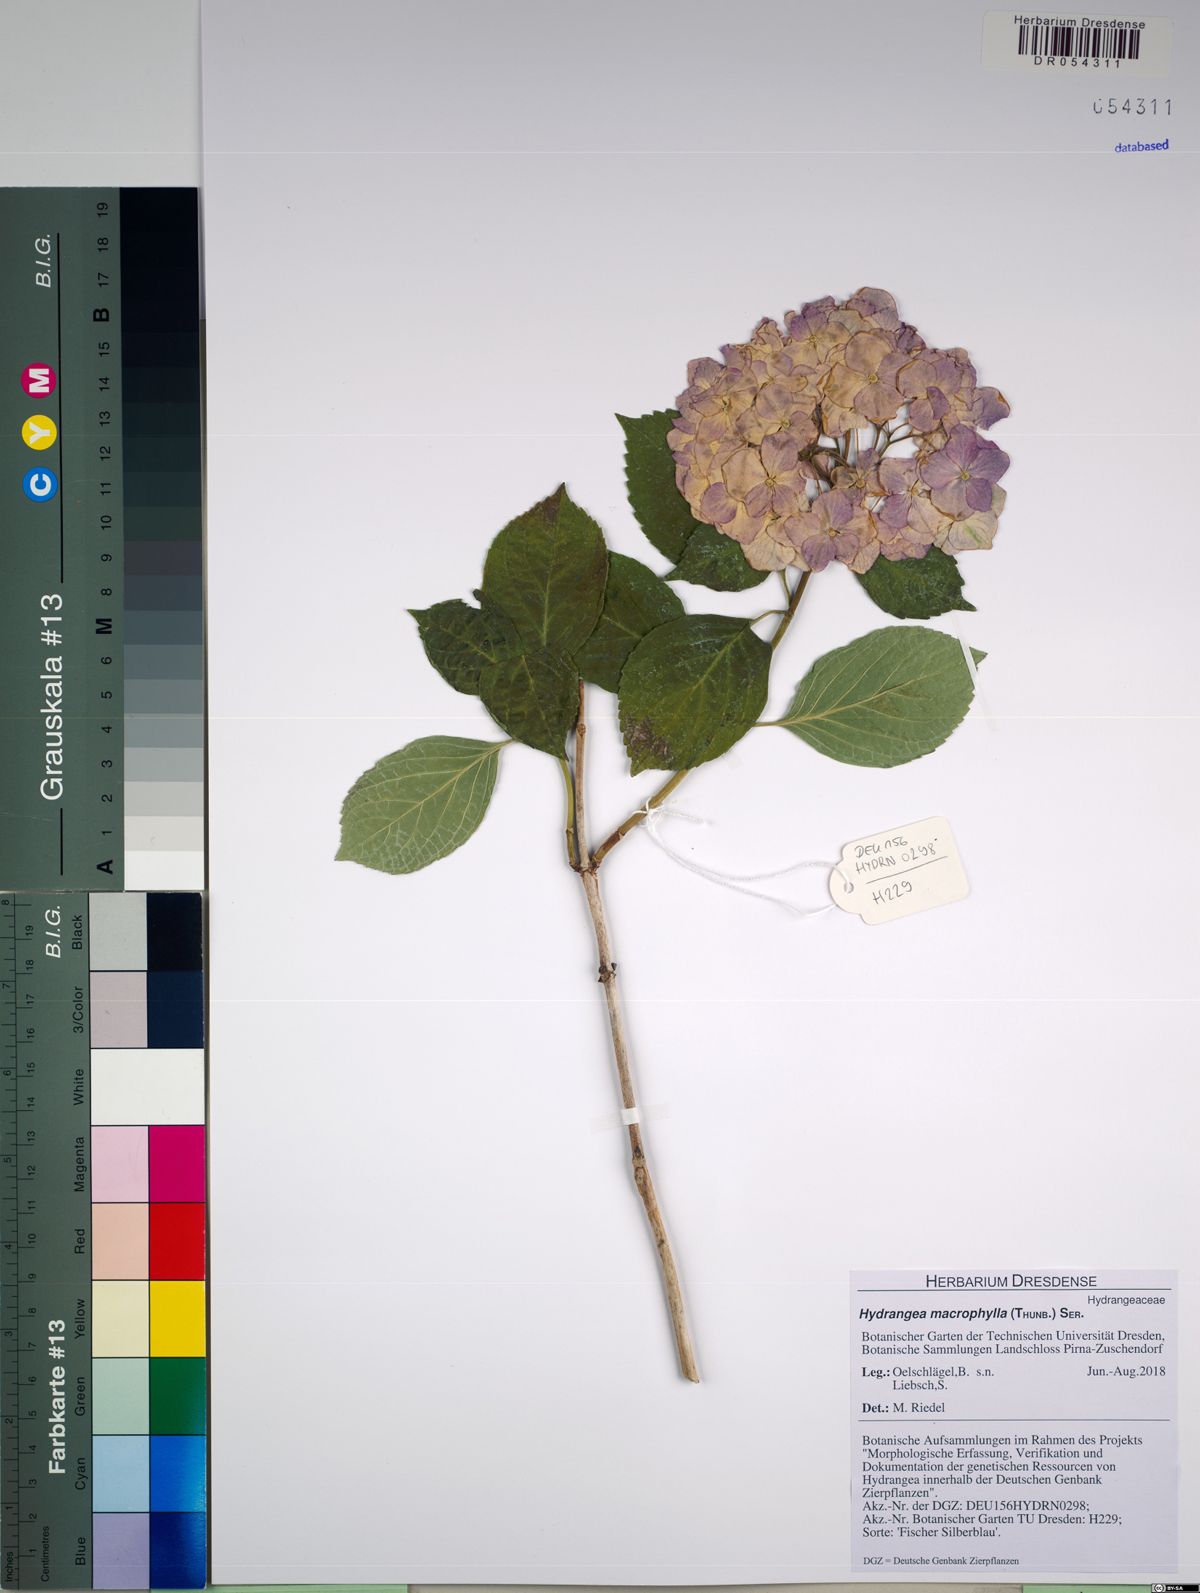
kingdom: Plantae
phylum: Tracheophyta
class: Magnoliopsida
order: Cornales
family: Hydrangeaceae
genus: Hydrangea
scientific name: Hydrangea macrophylla
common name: Hydrangea
